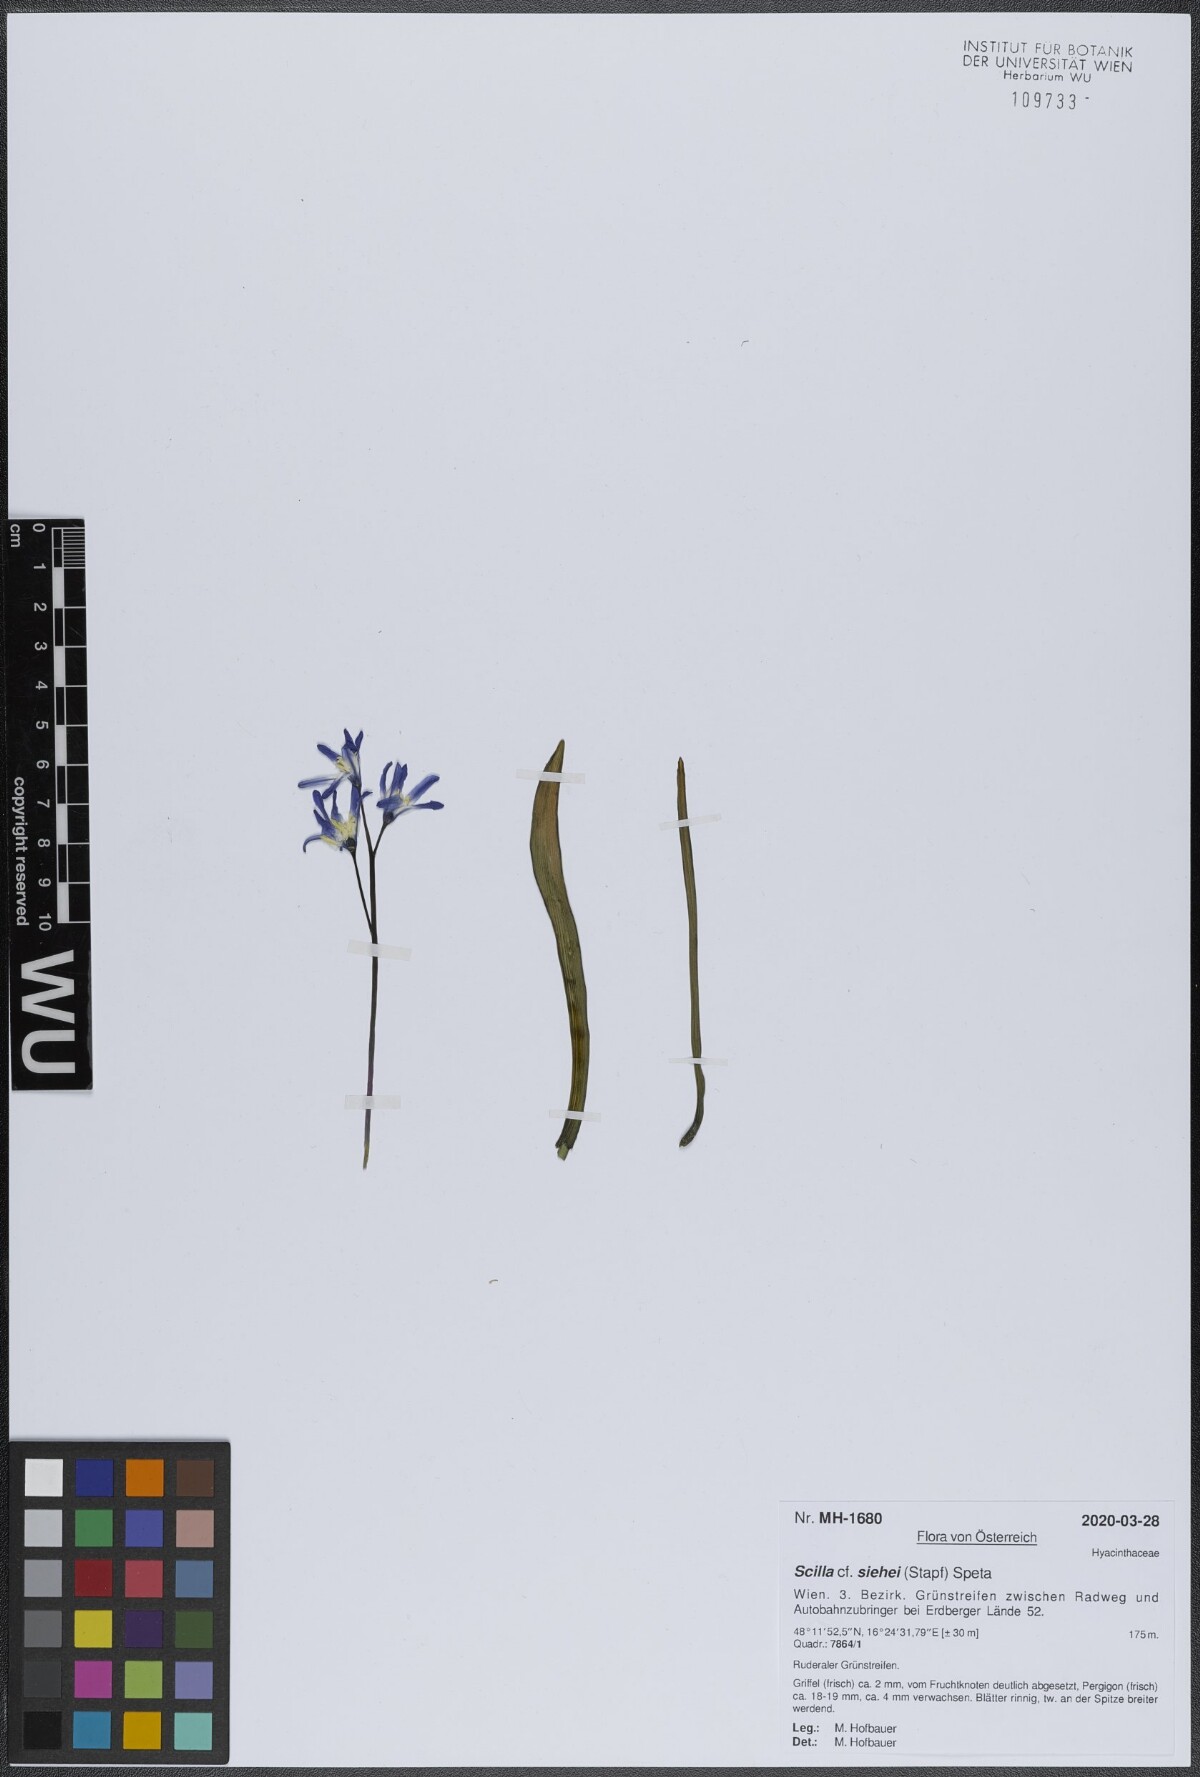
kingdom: Plantae
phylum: Tracheophyta
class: Liliopsida
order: Asparagales
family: Asparagaceae
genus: Scilla
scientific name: Scilla forbesii
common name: Glory-of-the-snow
